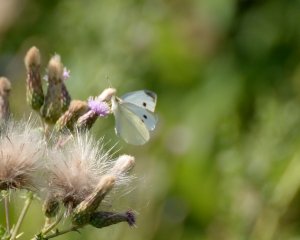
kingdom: Animalia
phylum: Arthropoda
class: Insecta
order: Lepidoptera
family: Pieridae
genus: Pieris
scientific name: Pieris rapae
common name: Cabbage White
